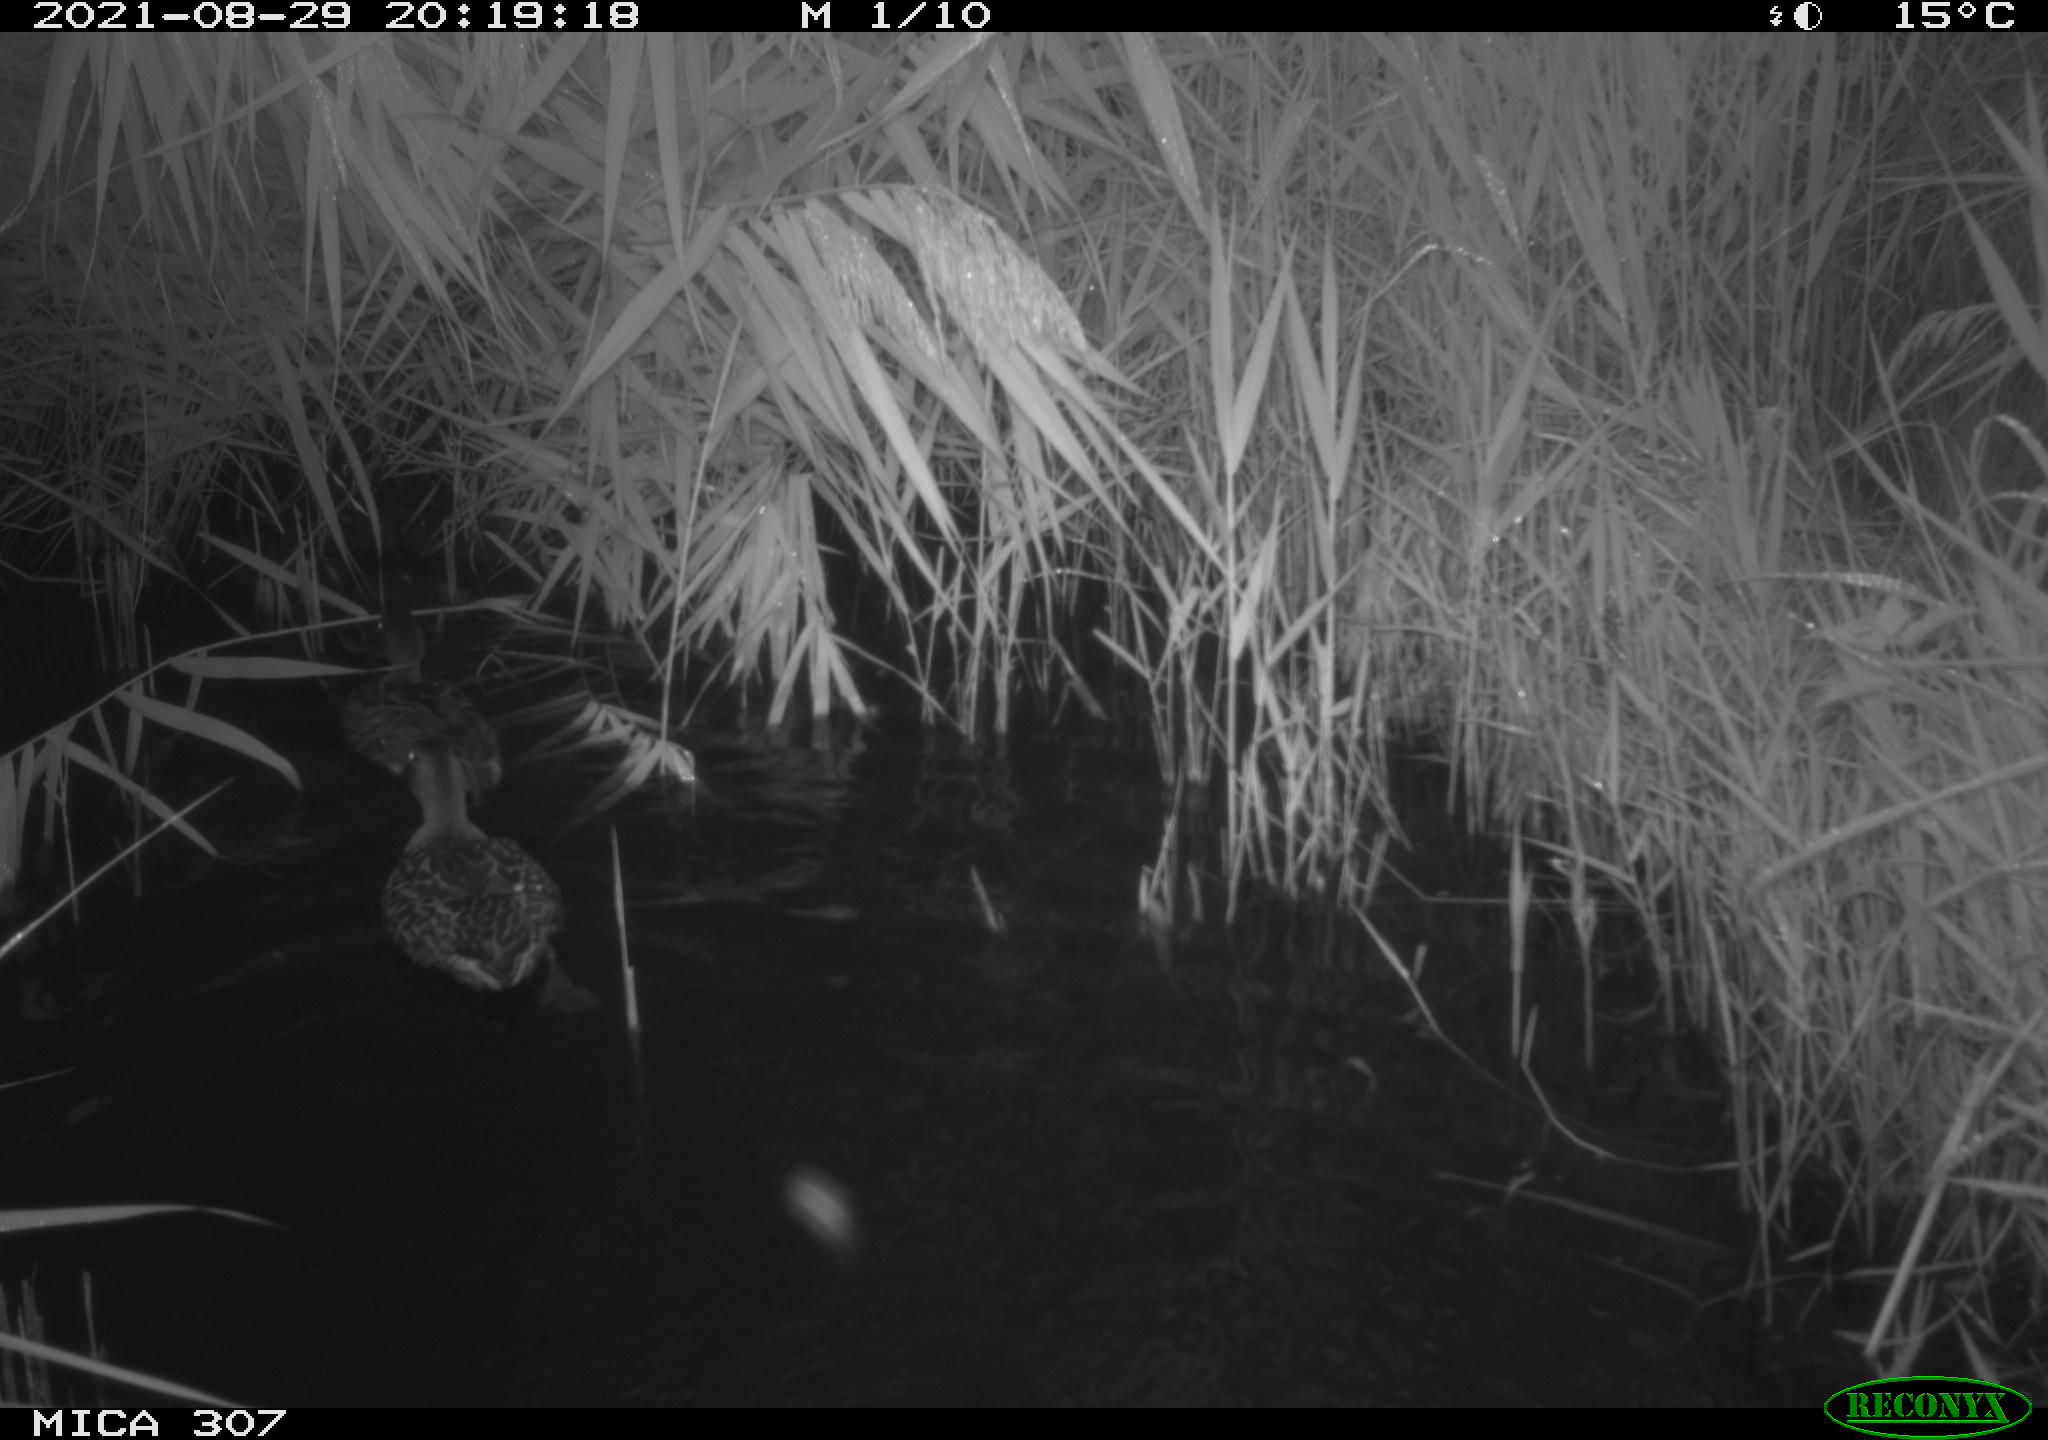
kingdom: Animalia
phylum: Chordata
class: Aves
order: Anseriformes
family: Anatidae
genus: Anas
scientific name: Anas platyrhynchos
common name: Mallard
